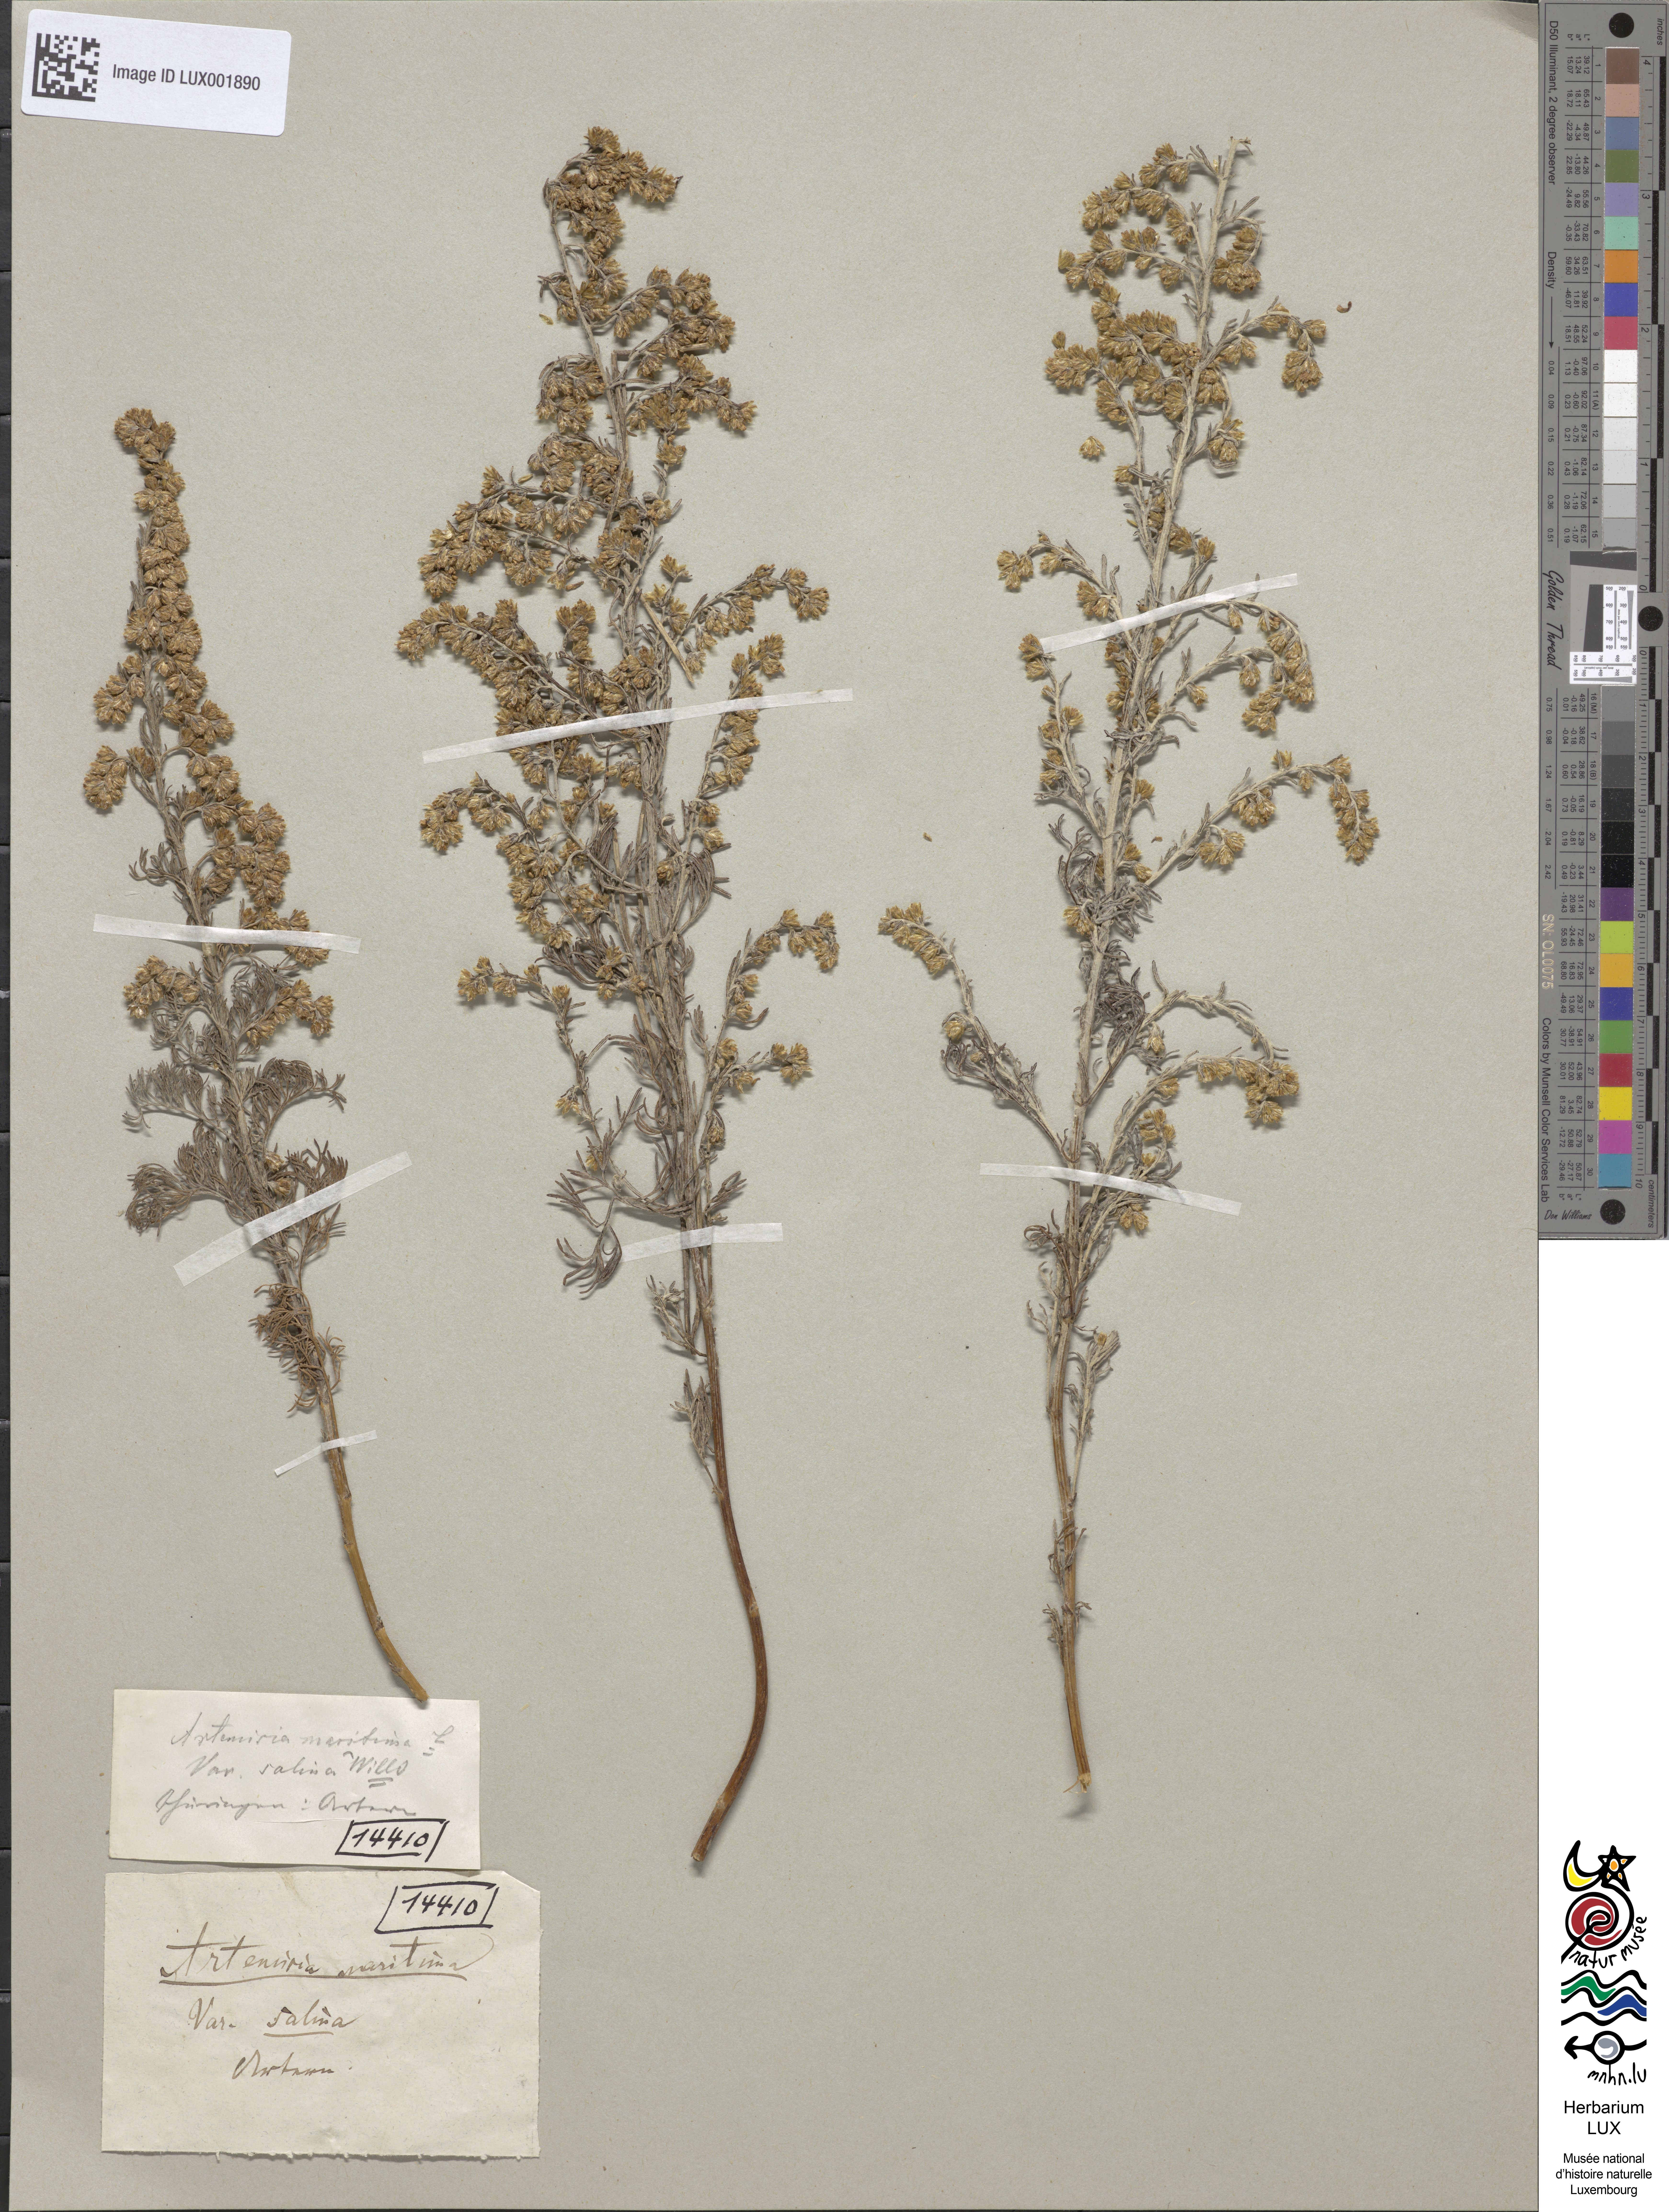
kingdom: Plantae
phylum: Tracheophyta
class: Magnoliopsida
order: Asterales
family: Asteraceae
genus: Artemisia
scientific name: Artemisia maritima
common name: Wormseed
